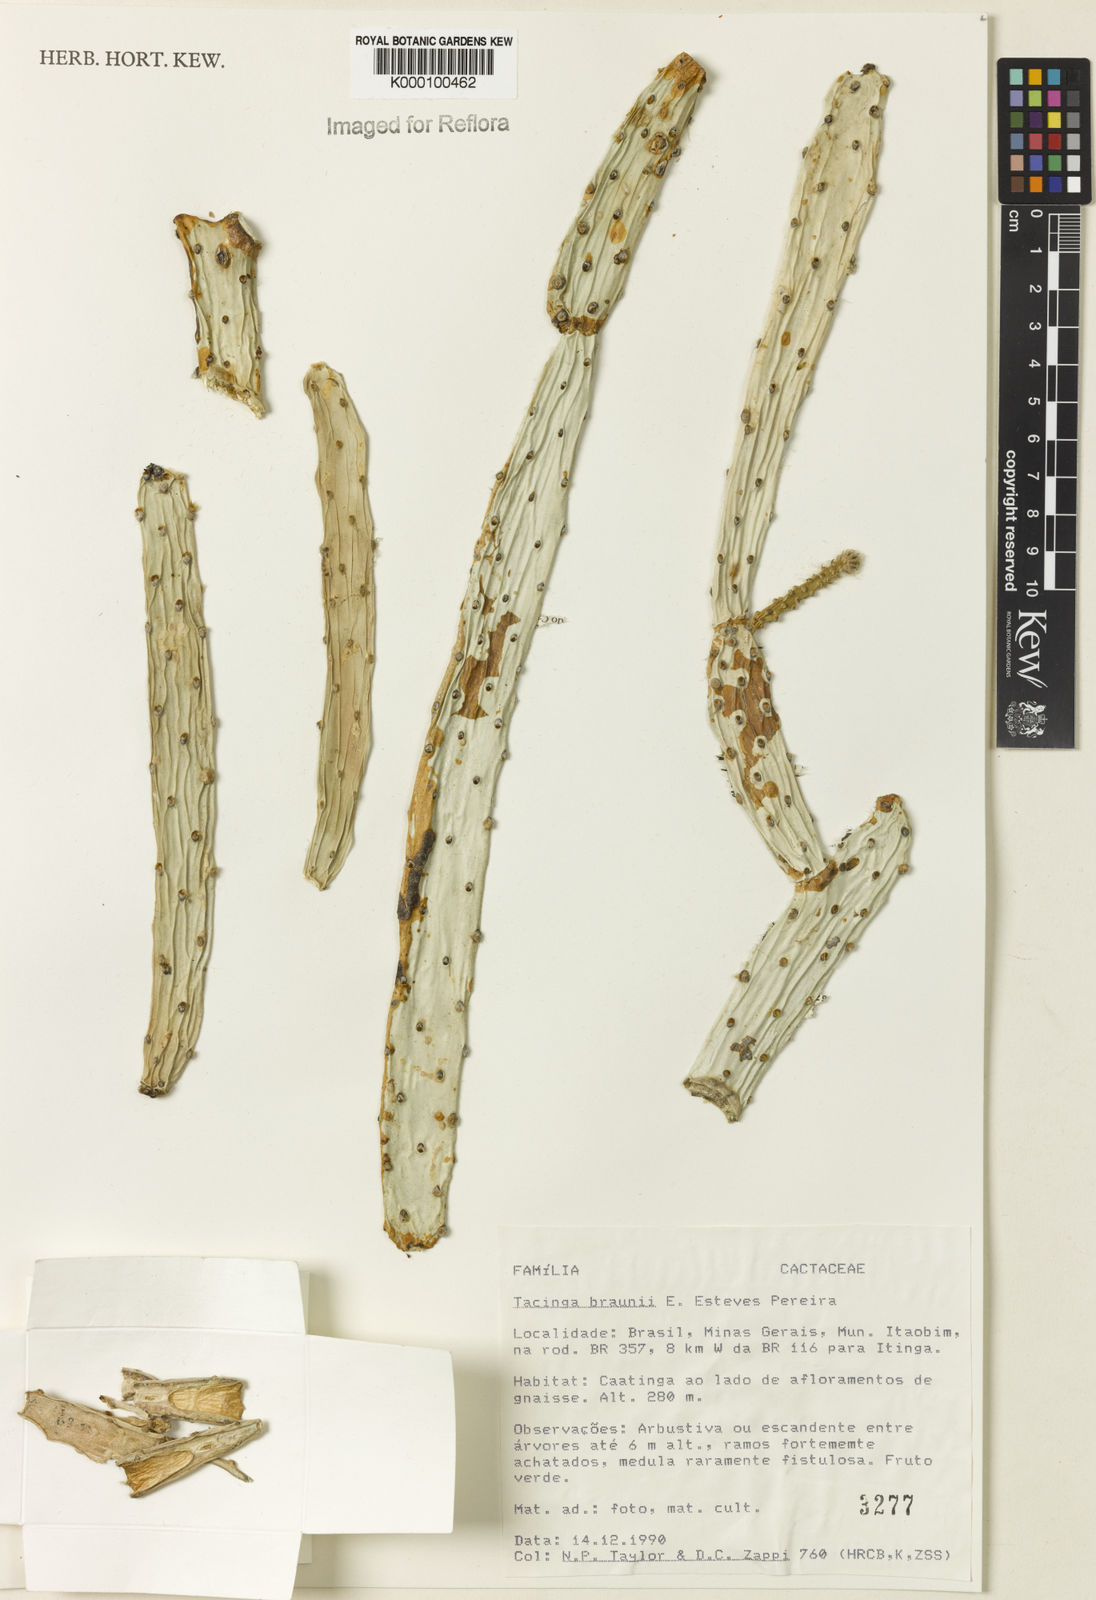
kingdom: Plantae
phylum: Tracheophyta
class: Magnoliopsida
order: Caryophyllales
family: Cactaceae
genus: Tacinga
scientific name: Tacinga braunii
